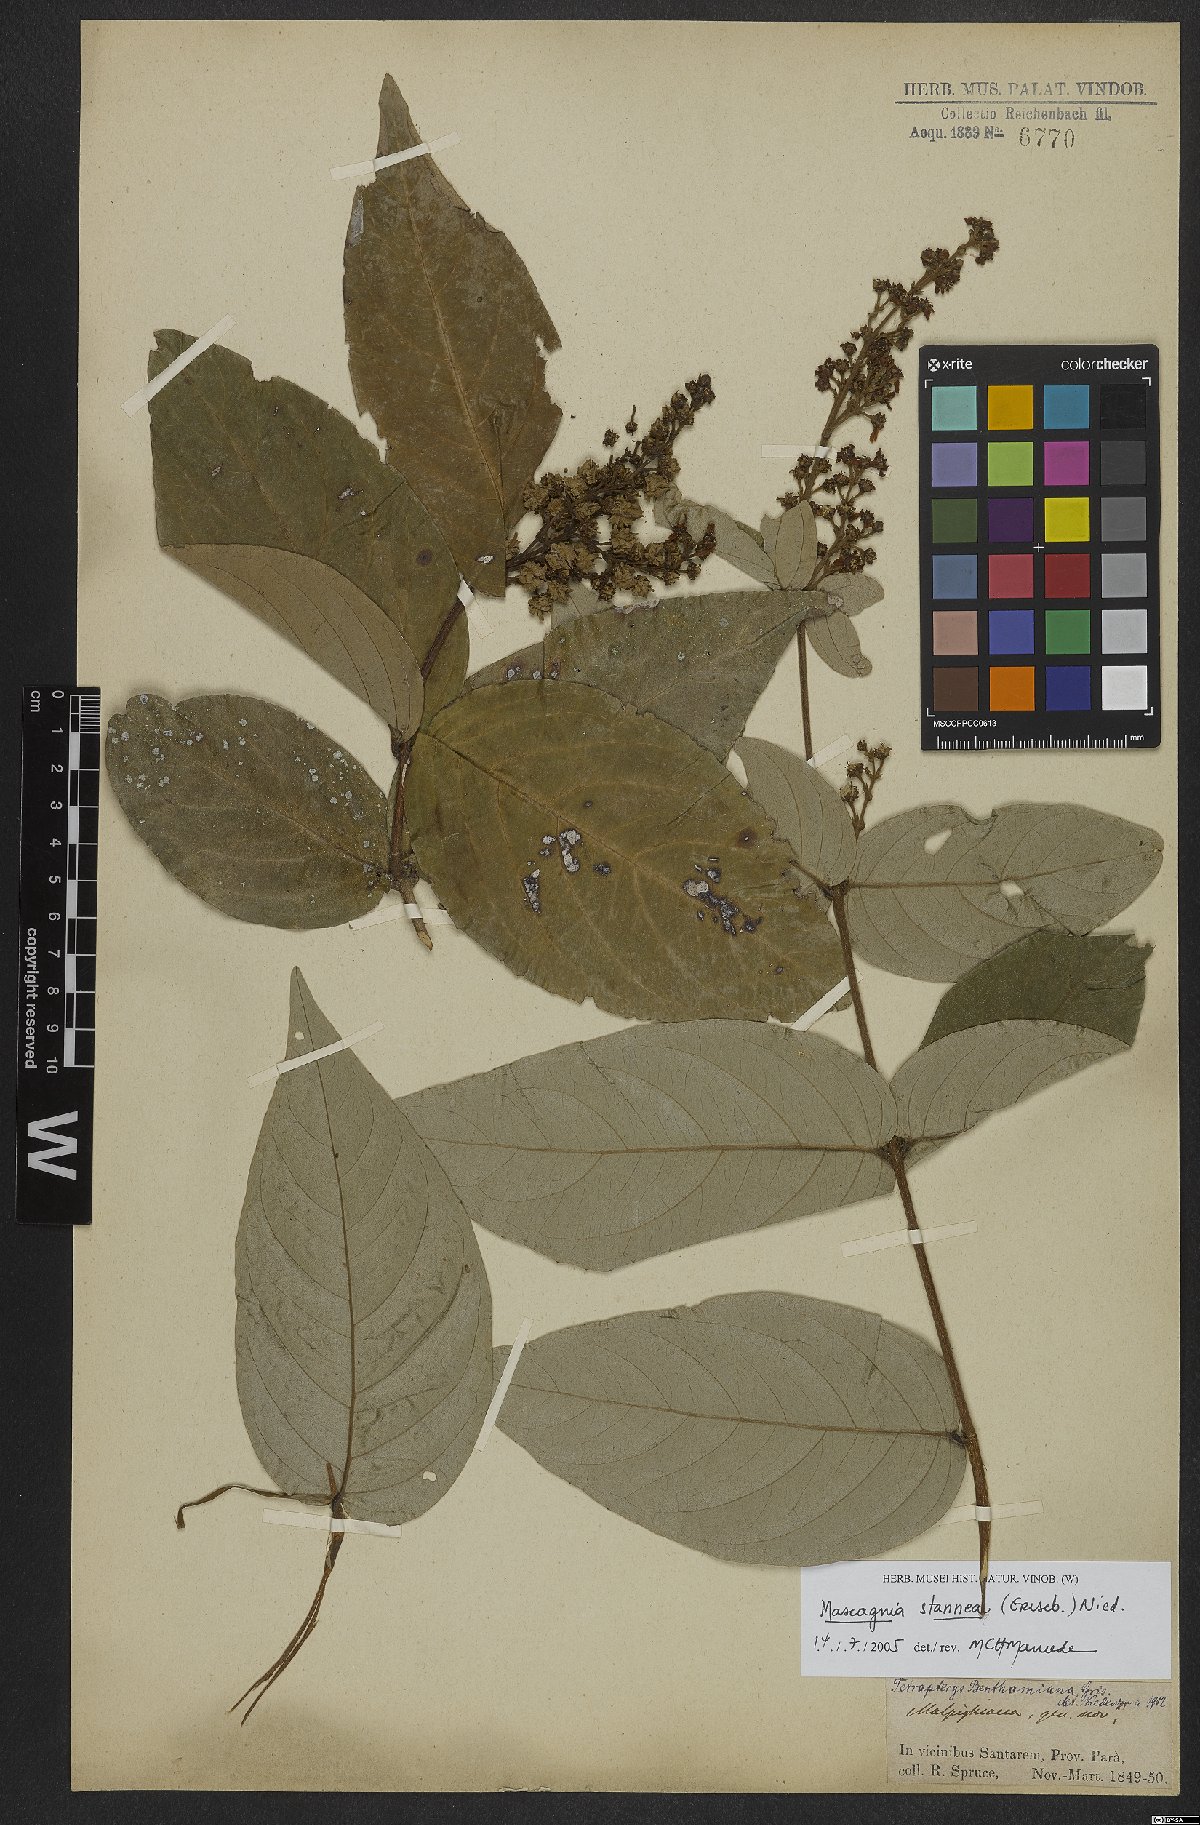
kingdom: Plantae
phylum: Tracheophyta
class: Magnoliopsida
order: Malpighiales
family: Malpighiaceae
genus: Niedenzuella
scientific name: Niedenzuella stannea
